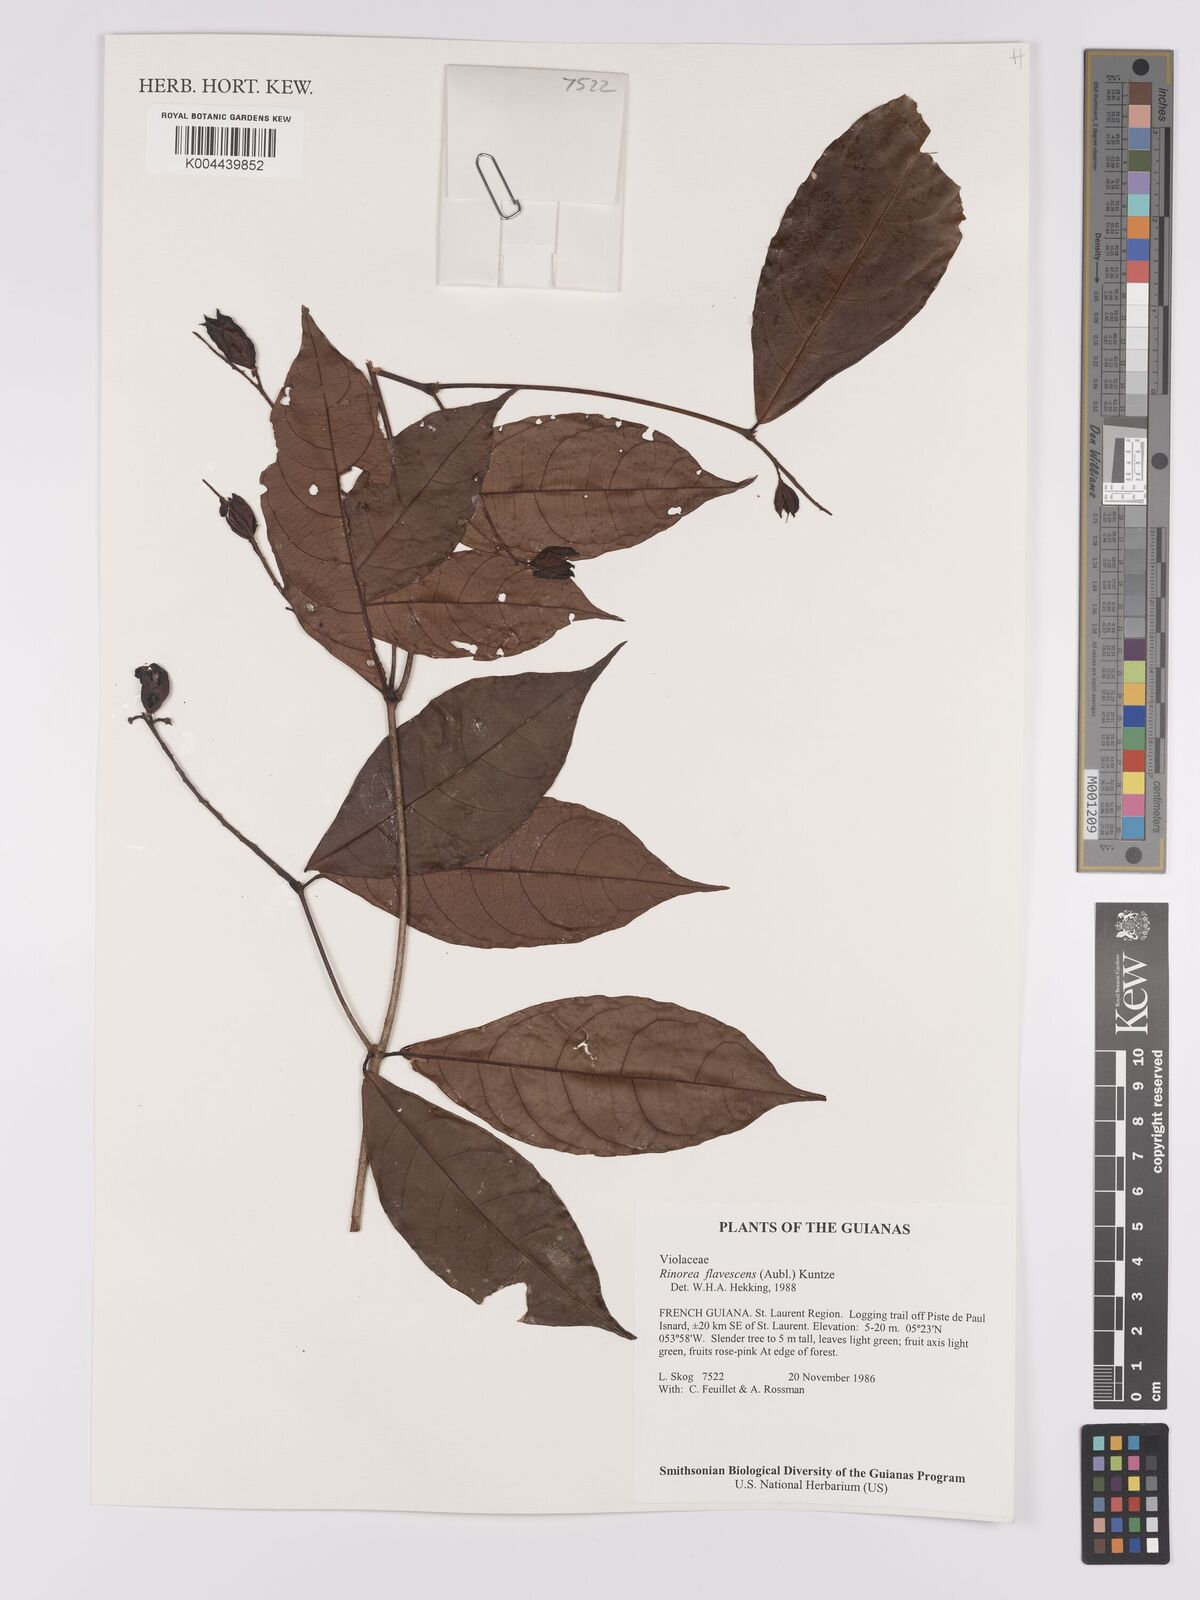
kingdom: Plantae
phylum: Tracheophyta
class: Magnoliopsida
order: Malpighiales
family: Violaceae
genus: Rinorea
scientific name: Rinorea flavescens
